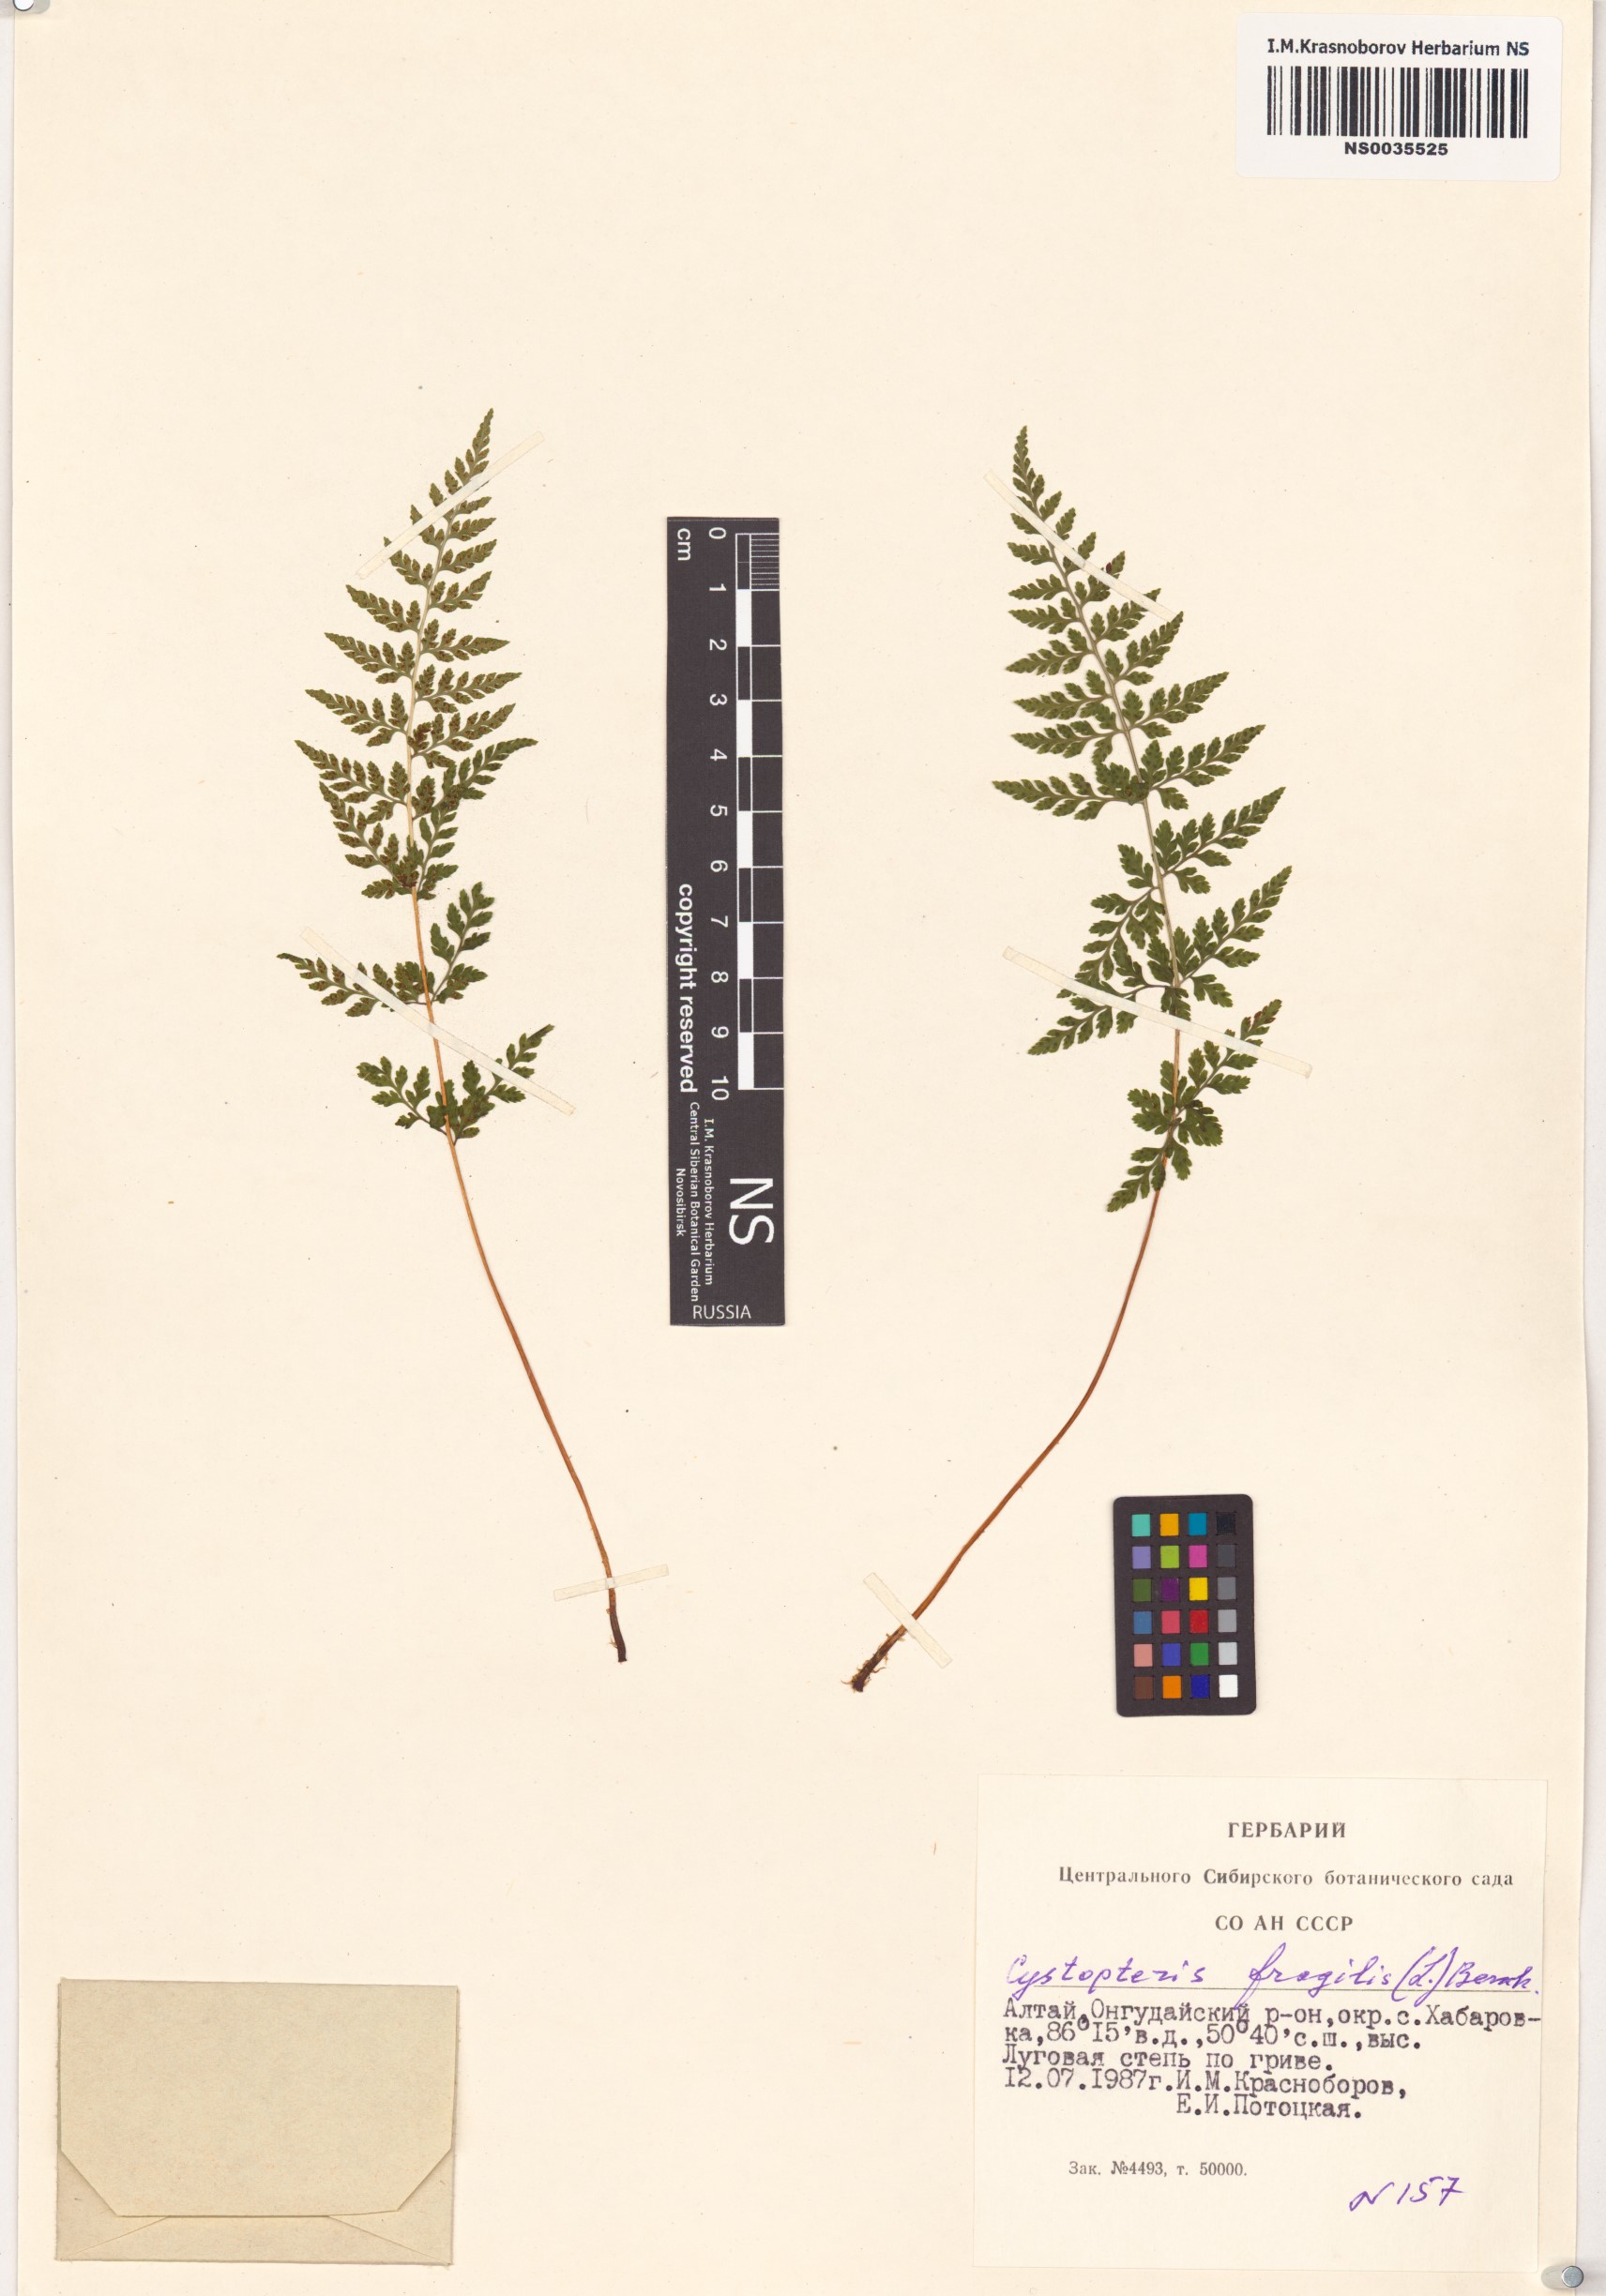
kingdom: Plantae
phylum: Tracheophyta
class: Polypodiopsida
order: Polypodiales
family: Cystopteridaceae
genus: Cystopteris
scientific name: Cystopteris fragilis
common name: Brittle bladder fern
